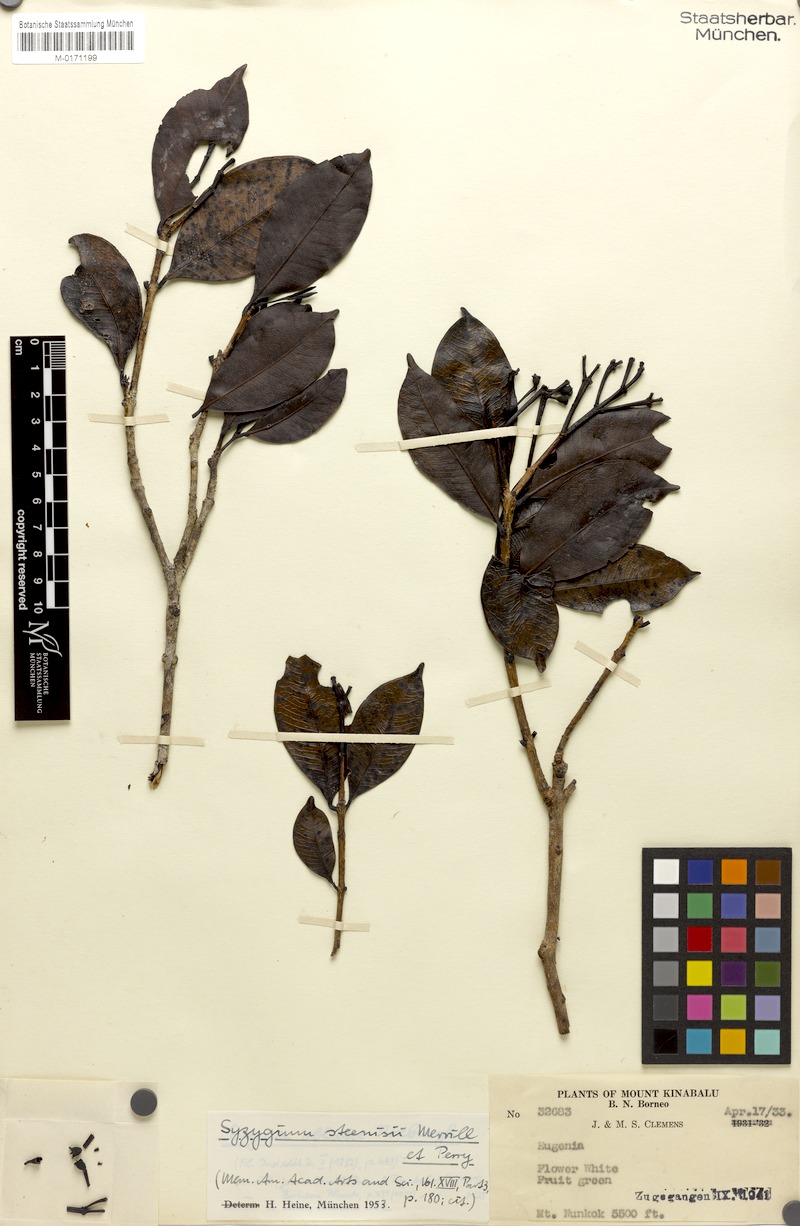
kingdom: Plantae
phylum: Tracheophyta
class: Magnoliopsida
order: Myrtales
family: Myrtaceae
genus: Syzygium
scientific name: Syzygium steenisii
